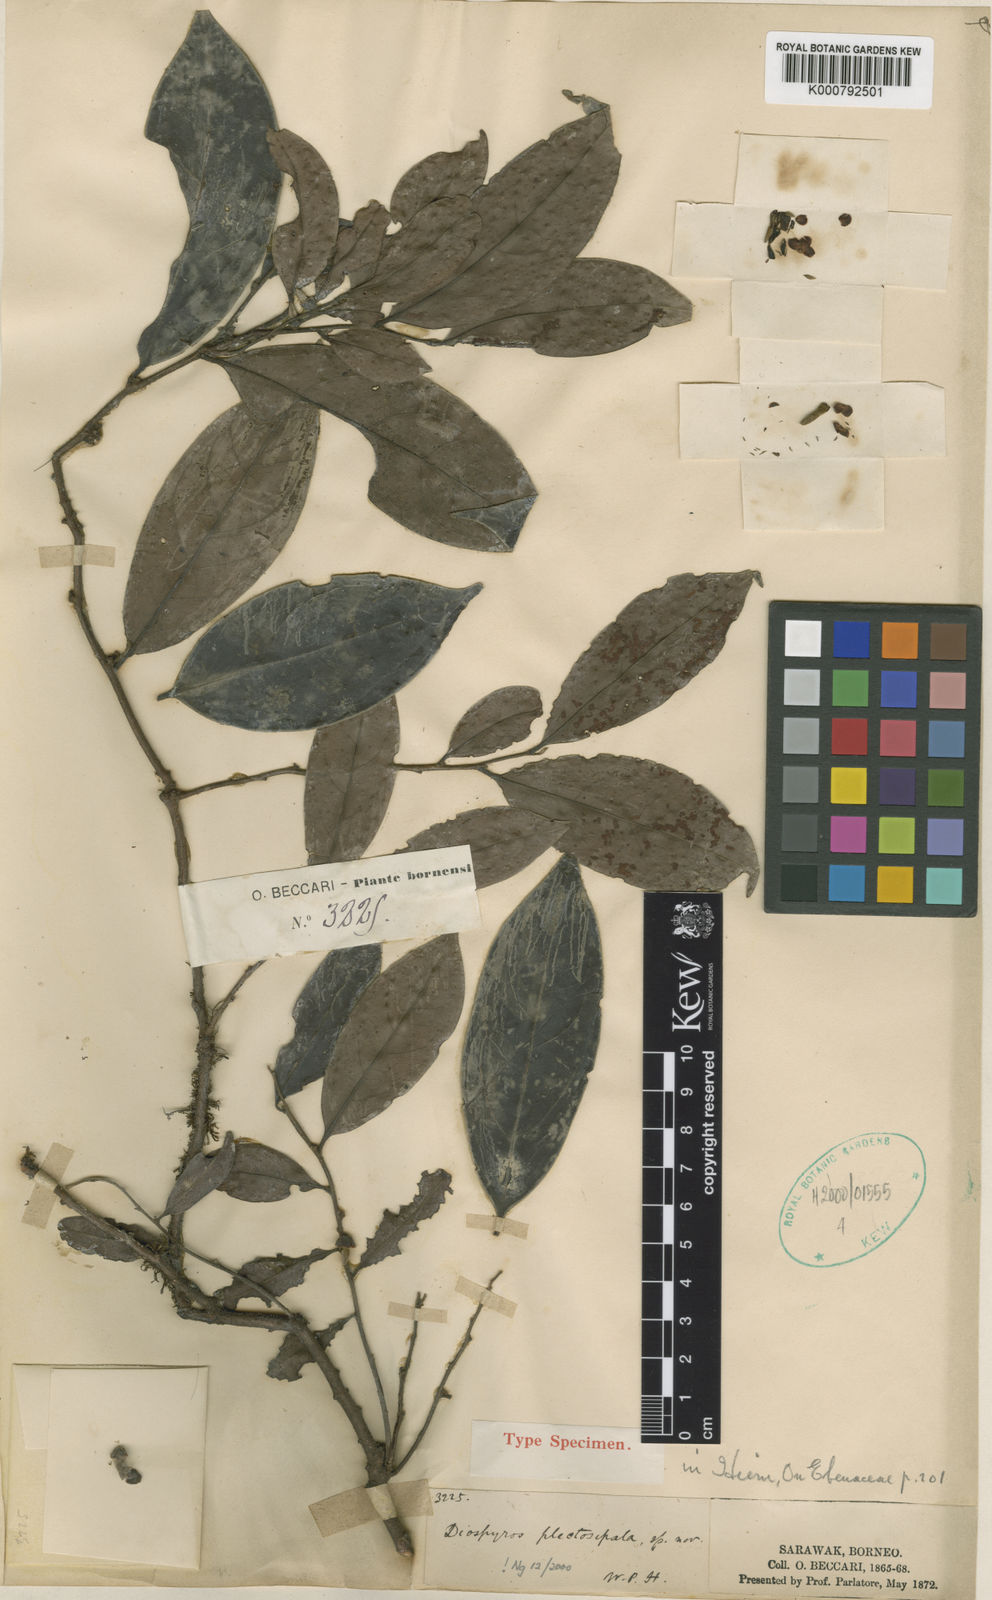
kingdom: Plantae
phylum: Tracheophyta
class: Magnoliopsida
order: Ericales
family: Ebenaceae
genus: Diospyros
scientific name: Diospyros plectosepala
